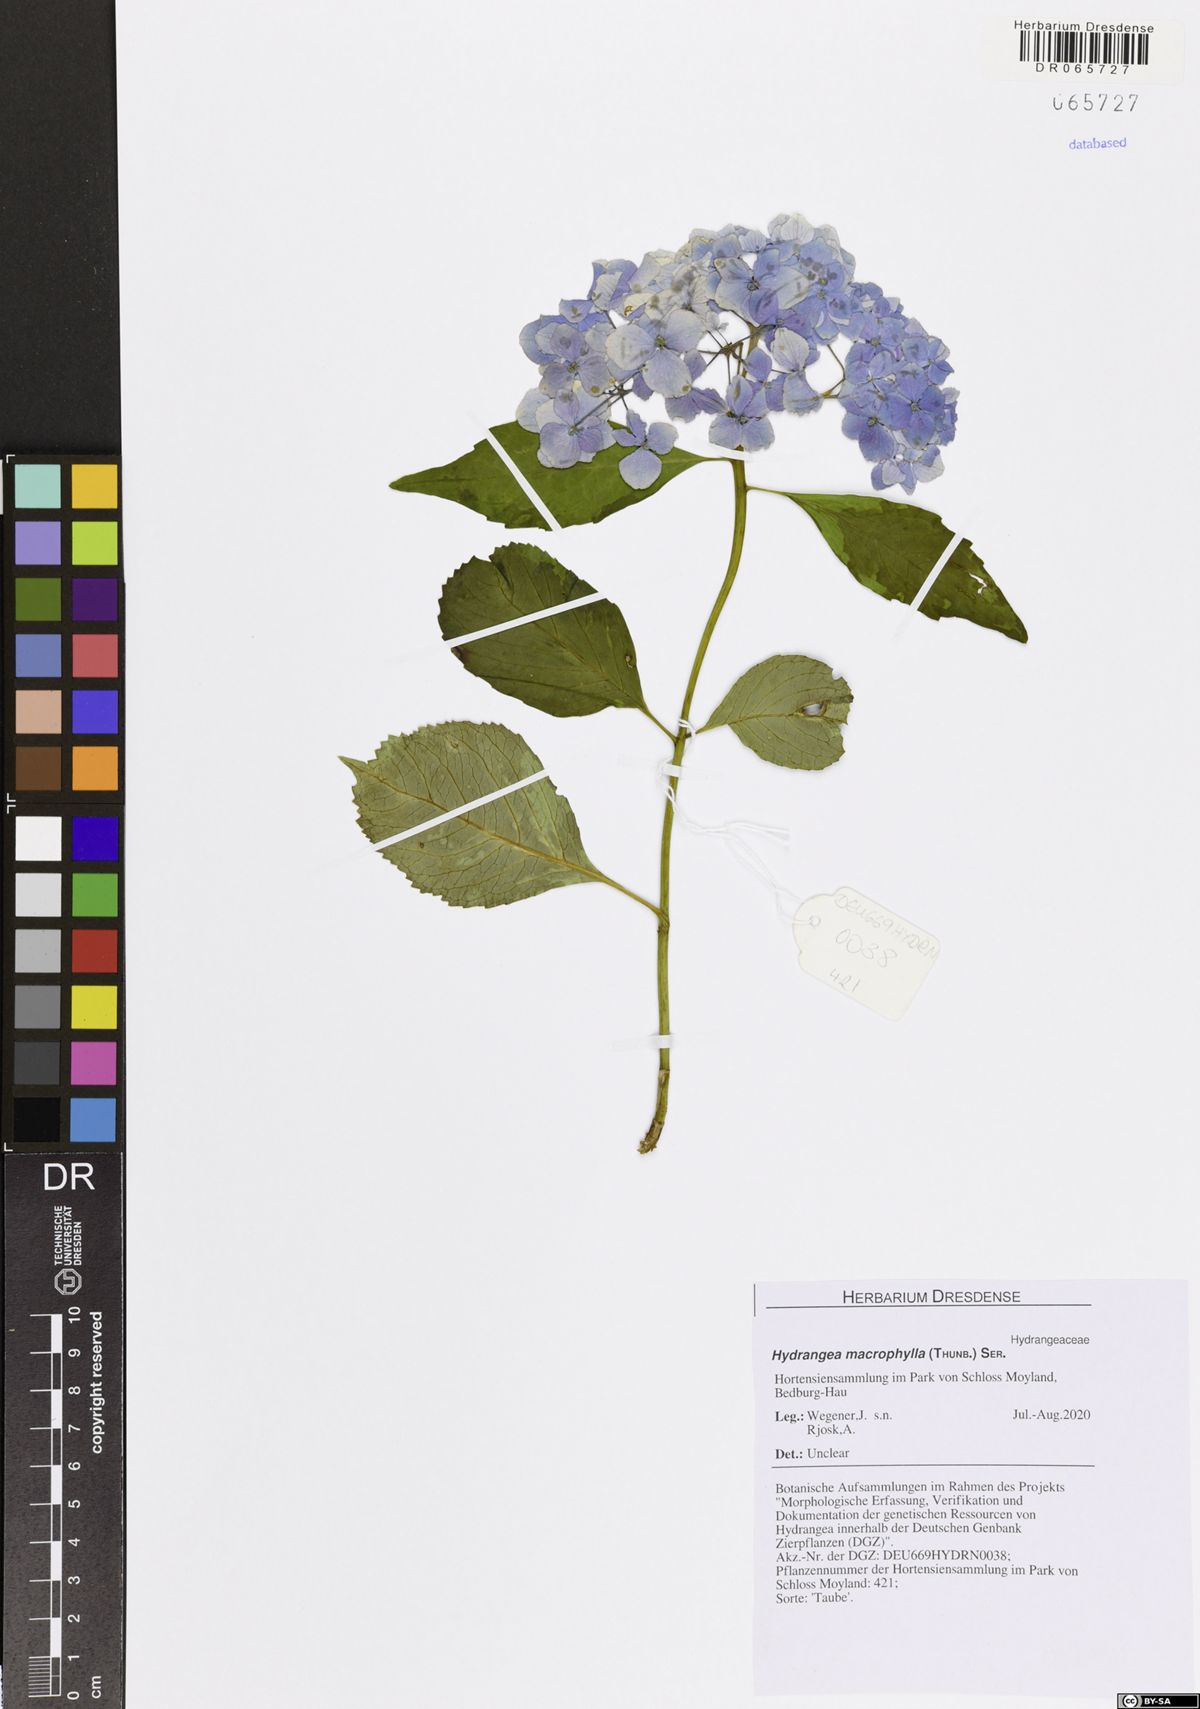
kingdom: Plantae
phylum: Tracheophyta
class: Magnoliopsida
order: Cornales
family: Hydrangeaceae
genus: Hydrangea
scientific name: Hydrangea macrophylla
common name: Hydrangea
